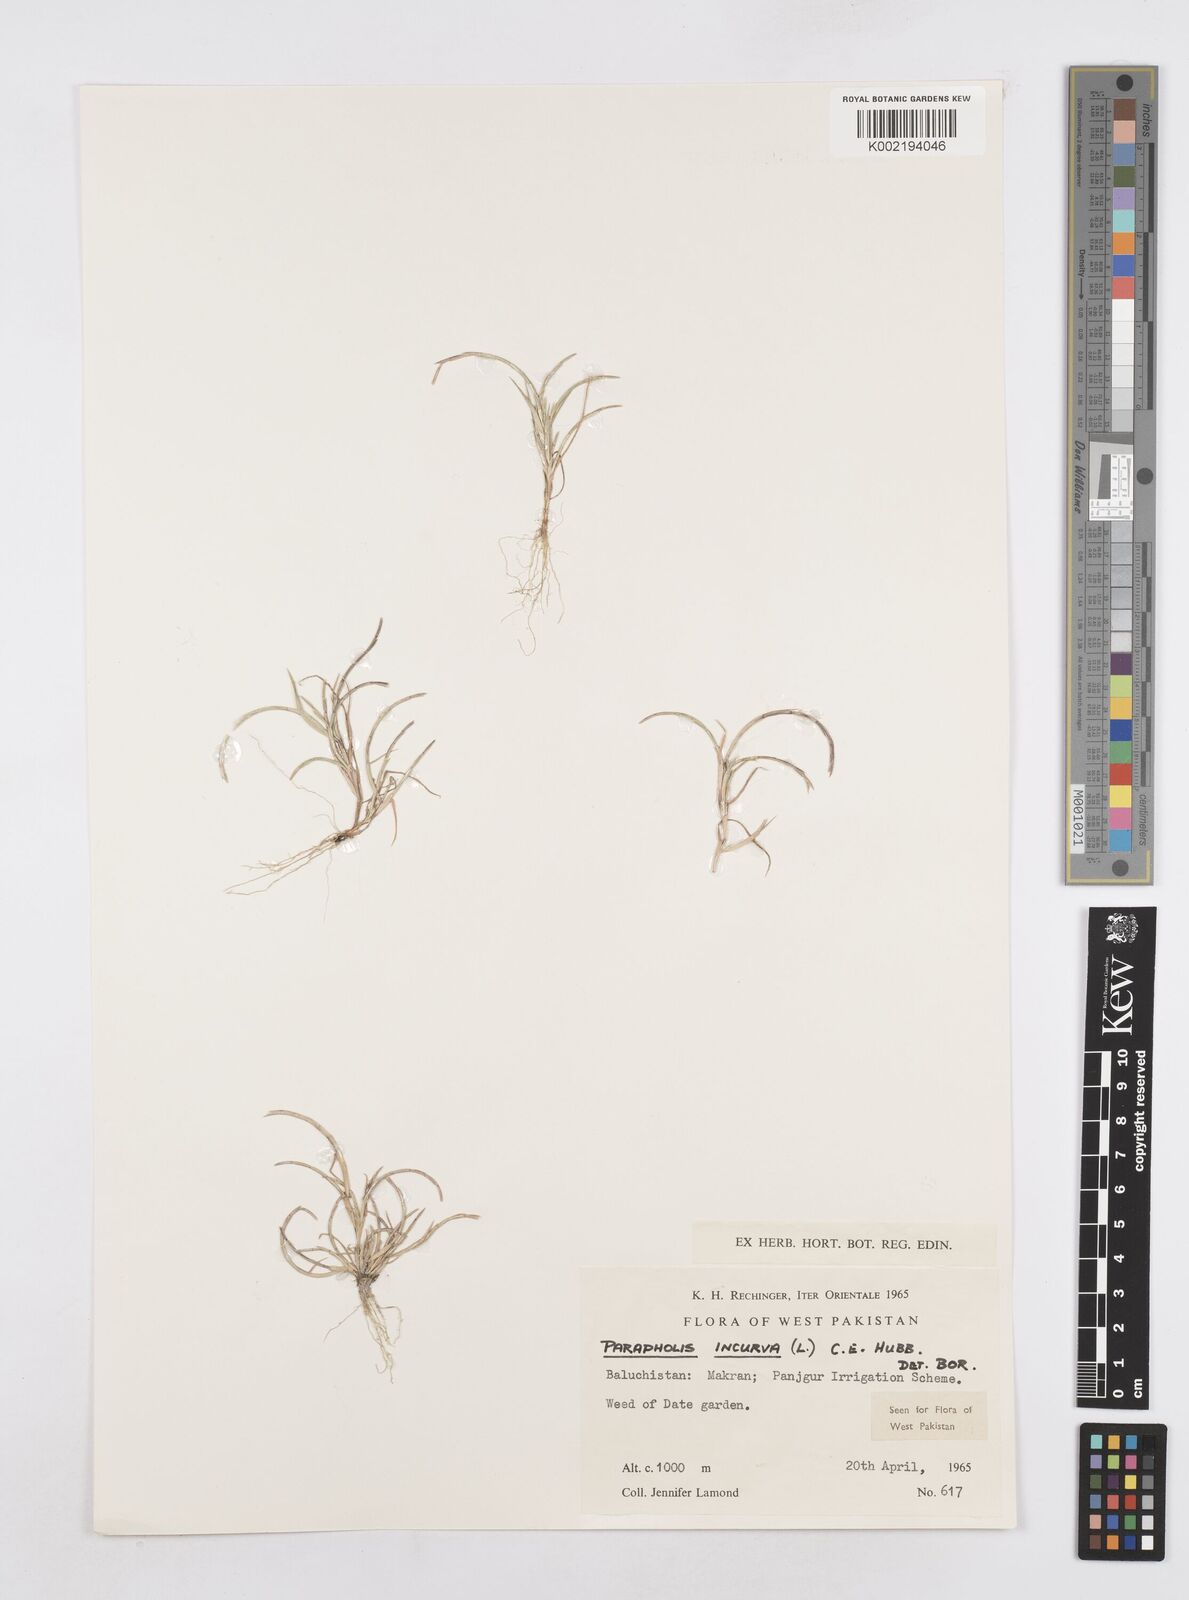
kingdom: Plantae
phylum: Tracheophyta
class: Liliopsida
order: Poales
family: Poaceae
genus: Parapholis
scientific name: Parapholis incurva
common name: Curved sicklegrass
